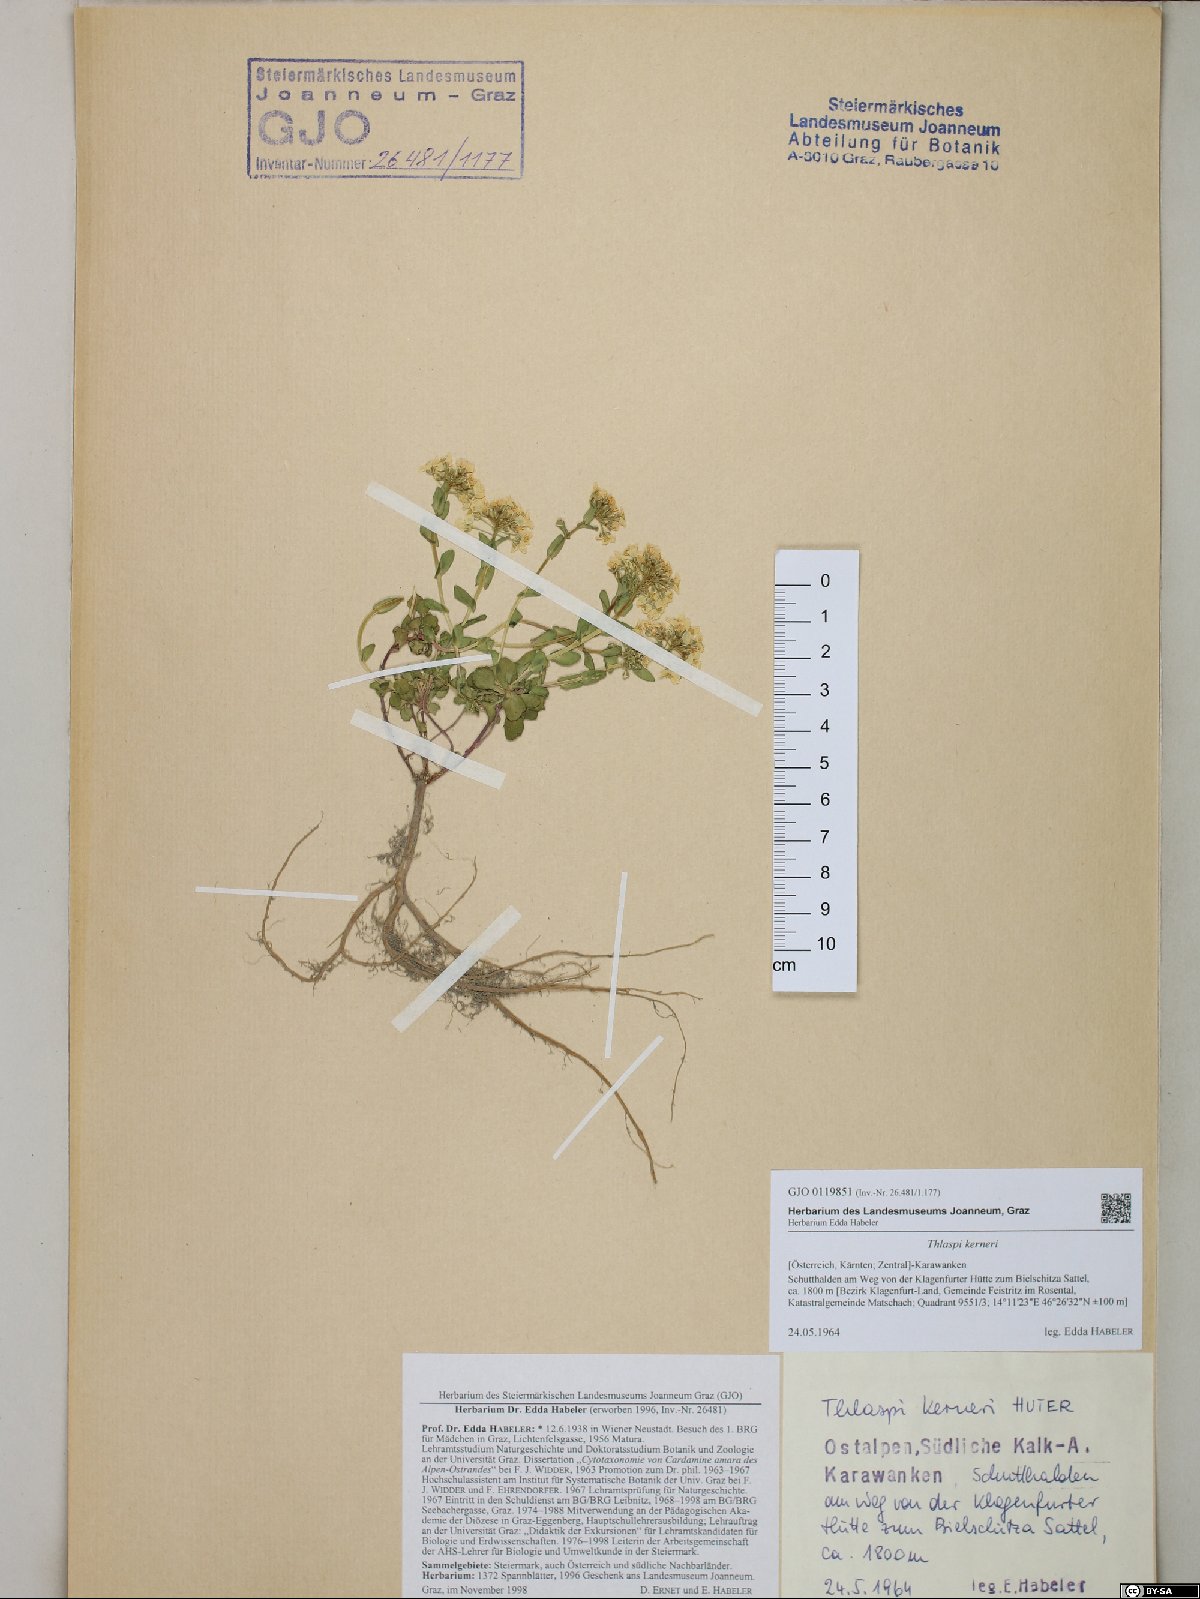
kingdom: Plantae
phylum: Tracheophyta
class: Magnoliopsida
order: Brassicales
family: Brassicaceae
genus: Noccaea
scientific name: Noccaea minima
